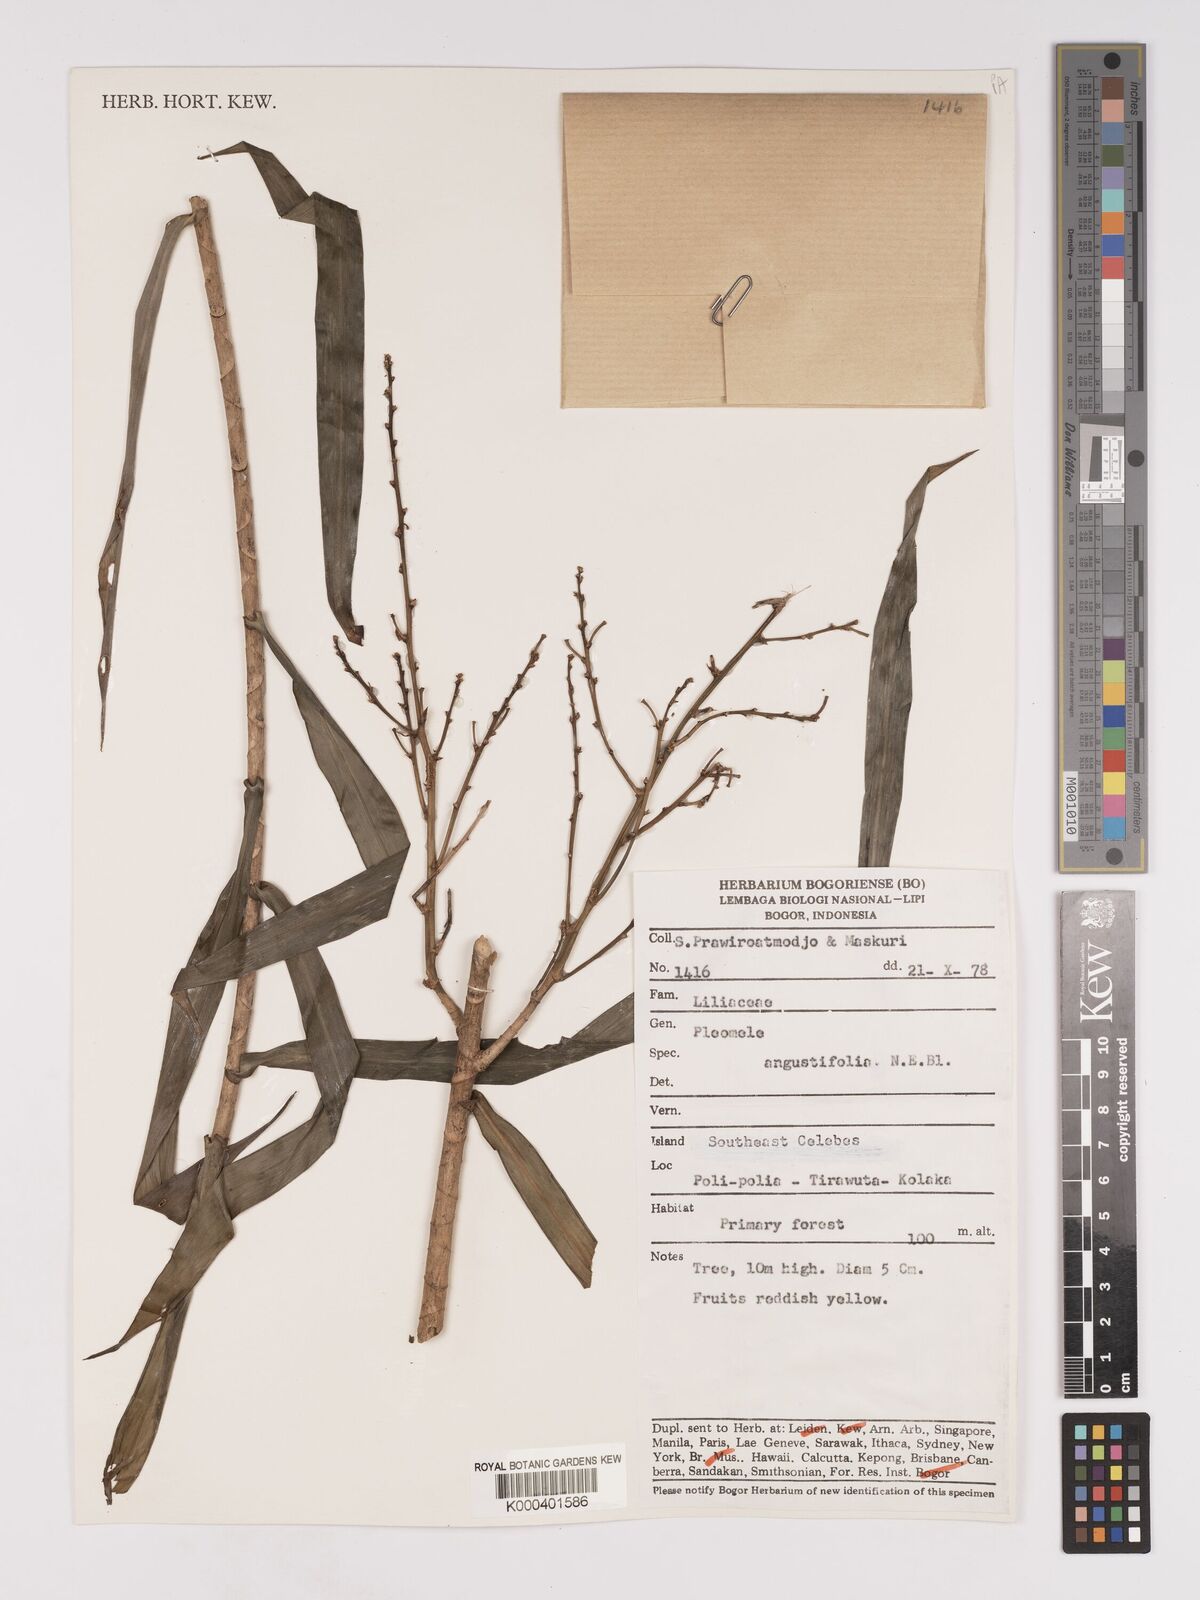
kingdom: Plantae
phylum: Tracheophyta
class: Liliopsida
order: Asparagales
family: Asparagaceae
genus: Dracaena
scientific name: Dracaena angustifolia
